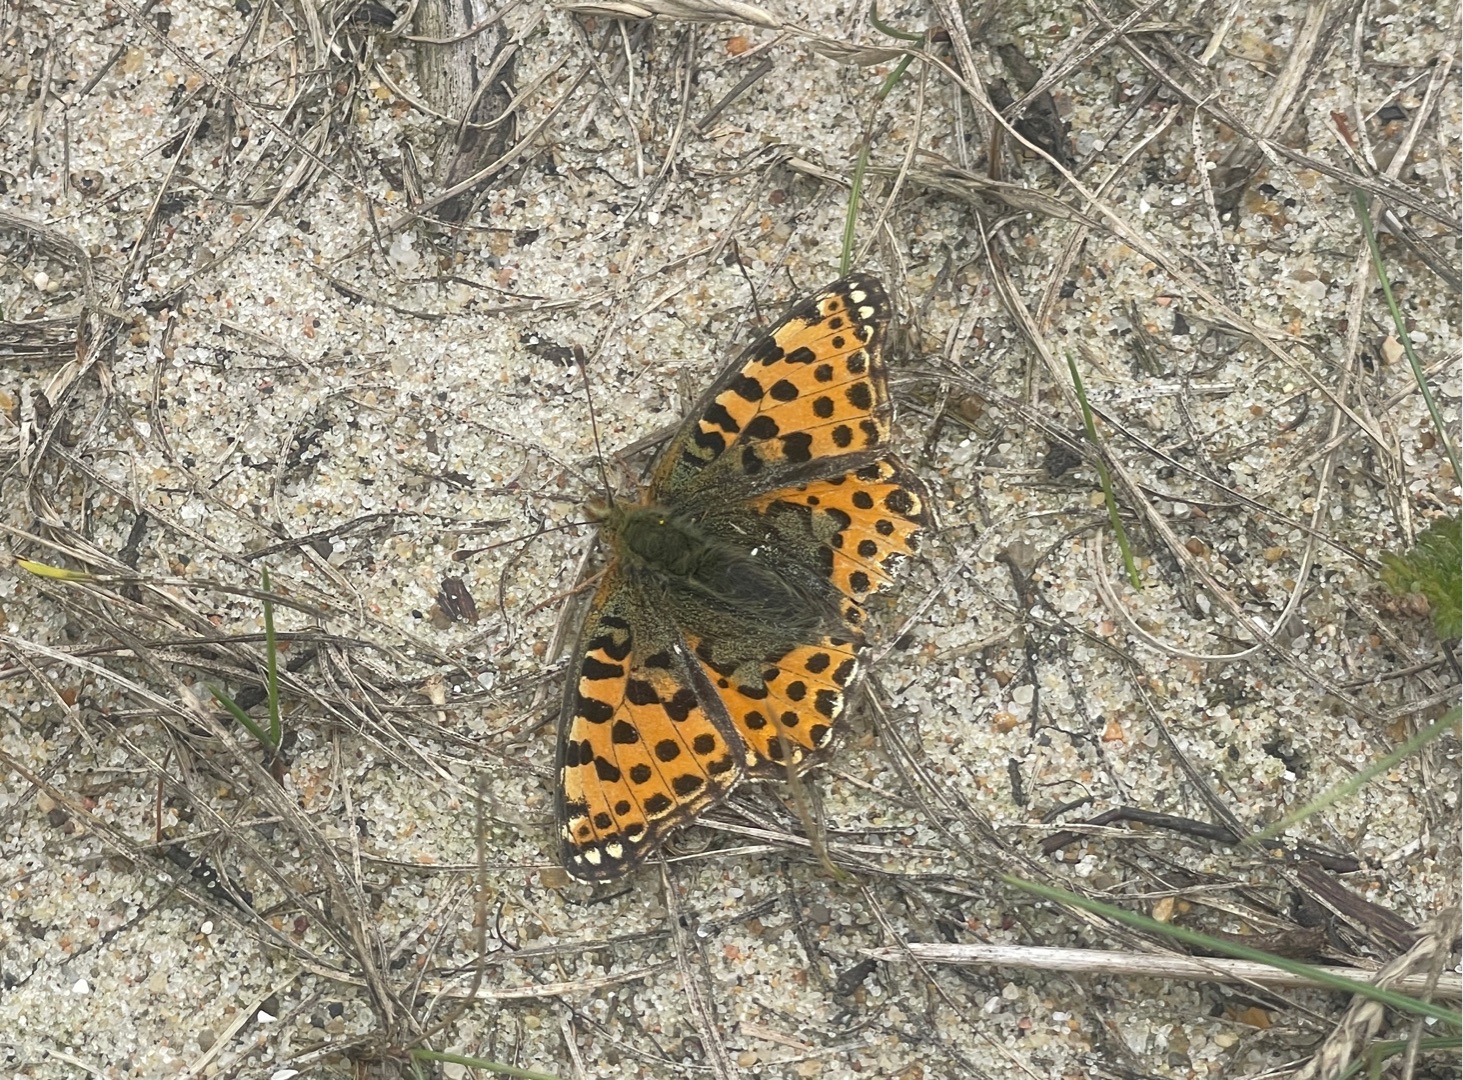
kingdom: Animalia
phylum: Arthropoda
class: Insecta
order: Lepidoptera
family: Nymphalidae
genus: Issoria
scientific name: Issoria lathonia
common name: Storplettet perlemorsommerfugl
